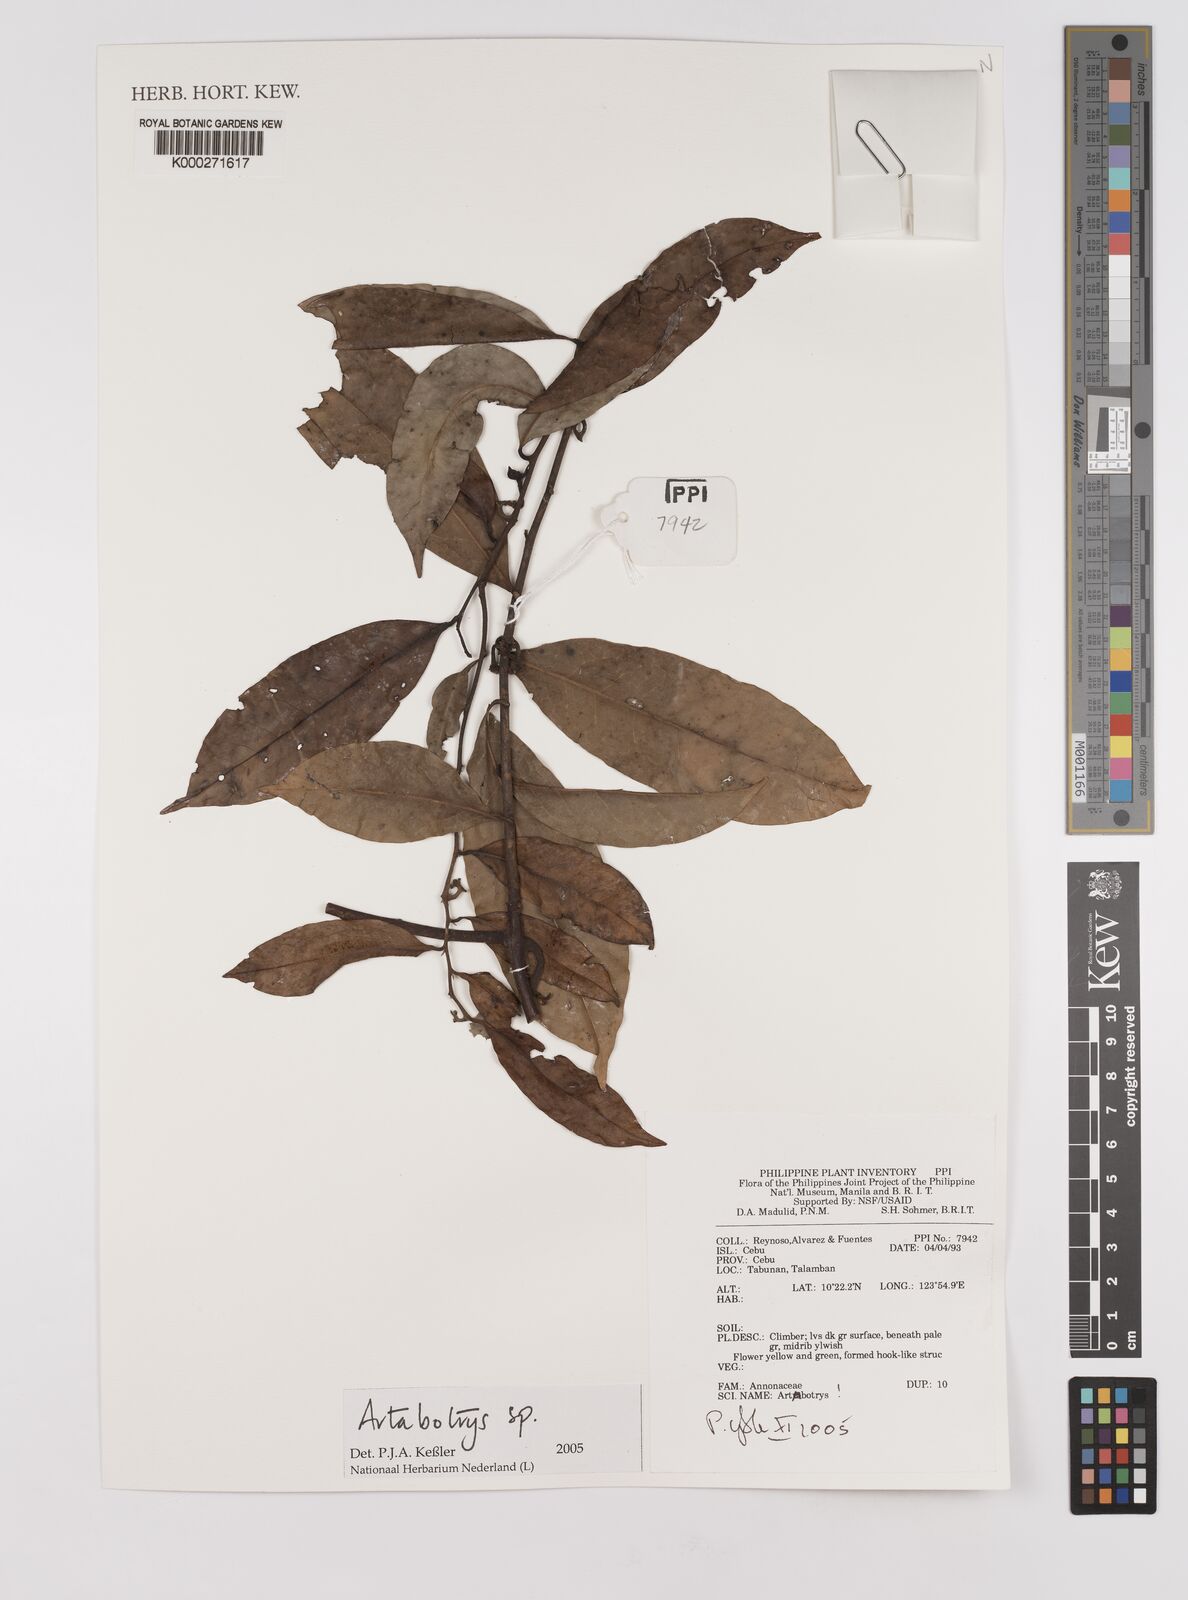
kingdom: Plantae
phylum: Tracheophyta
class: Magnoliopsida
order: Magnoliales
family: Annonaceae
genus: Artabotrys
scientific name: Artabotrys
